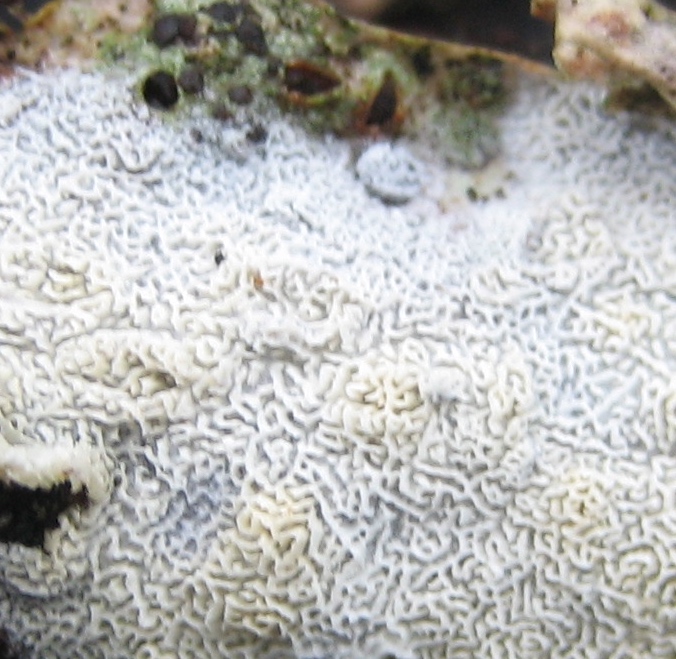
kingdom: Fungi
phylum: Basidiomycota
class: Agaricomycetes
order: Hymenochaetales
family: Schizoporaceae
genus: Xylodon
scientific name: Xylodon subtropicus
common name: labyrint-tandsvamp
